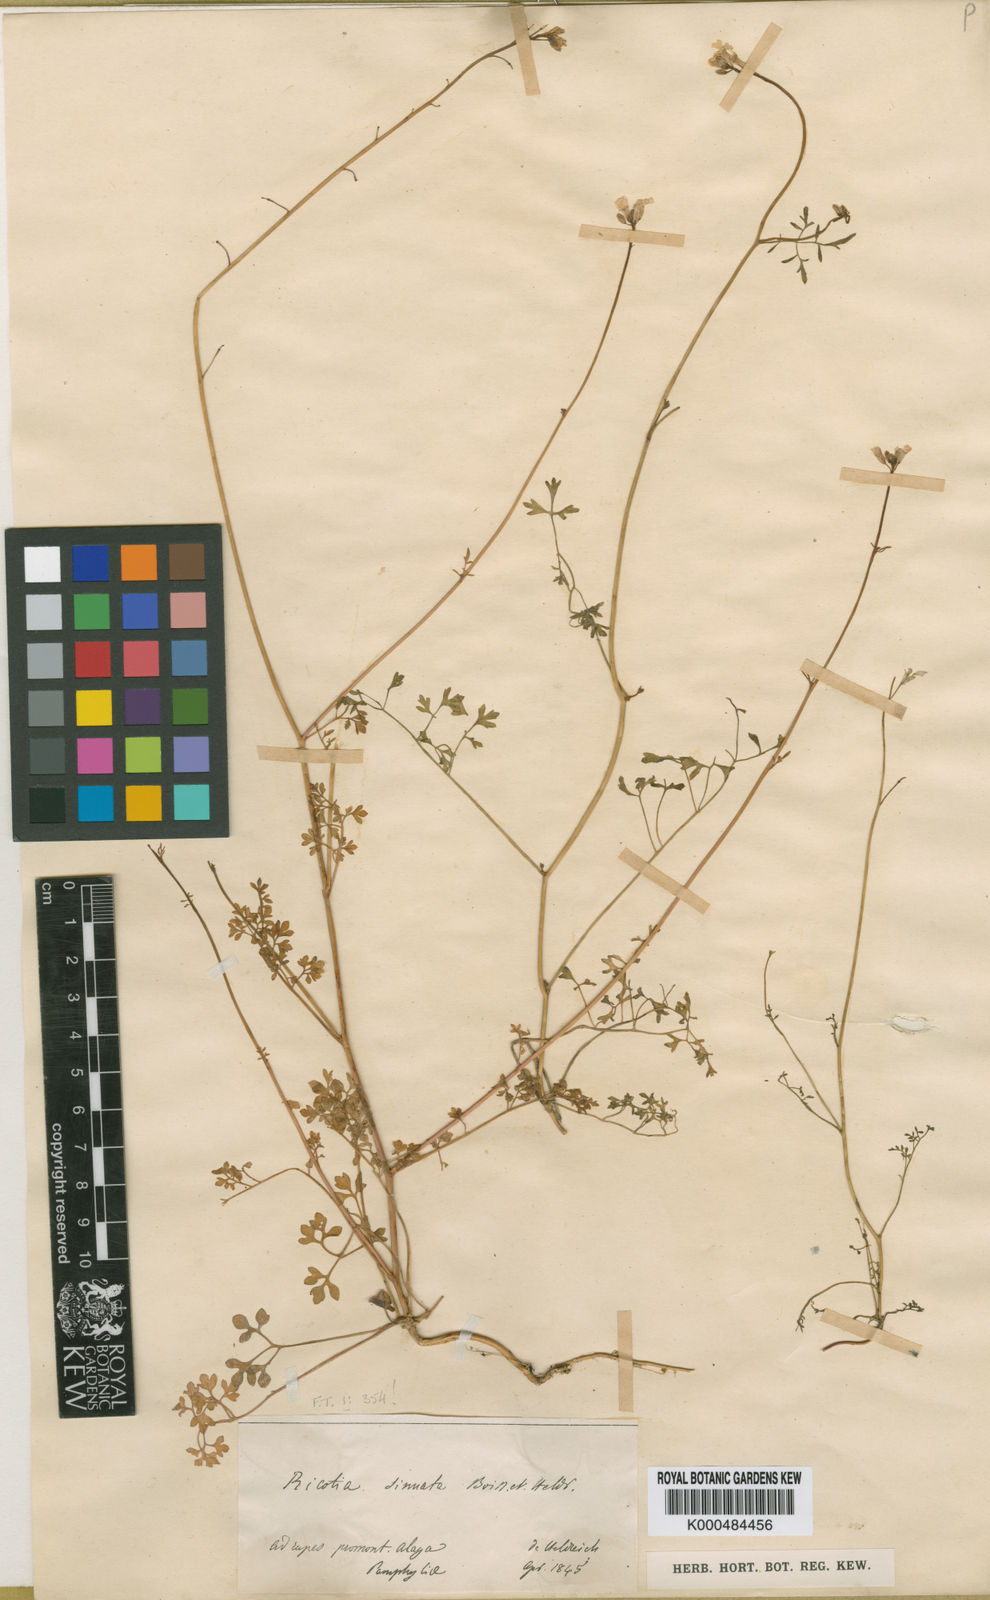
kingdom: Plantae
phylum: Tracheophyta
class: Magnoliopsida
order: Brassicales
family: Brassicaceae
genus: Ricotia
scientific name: Ricotia sinuata
